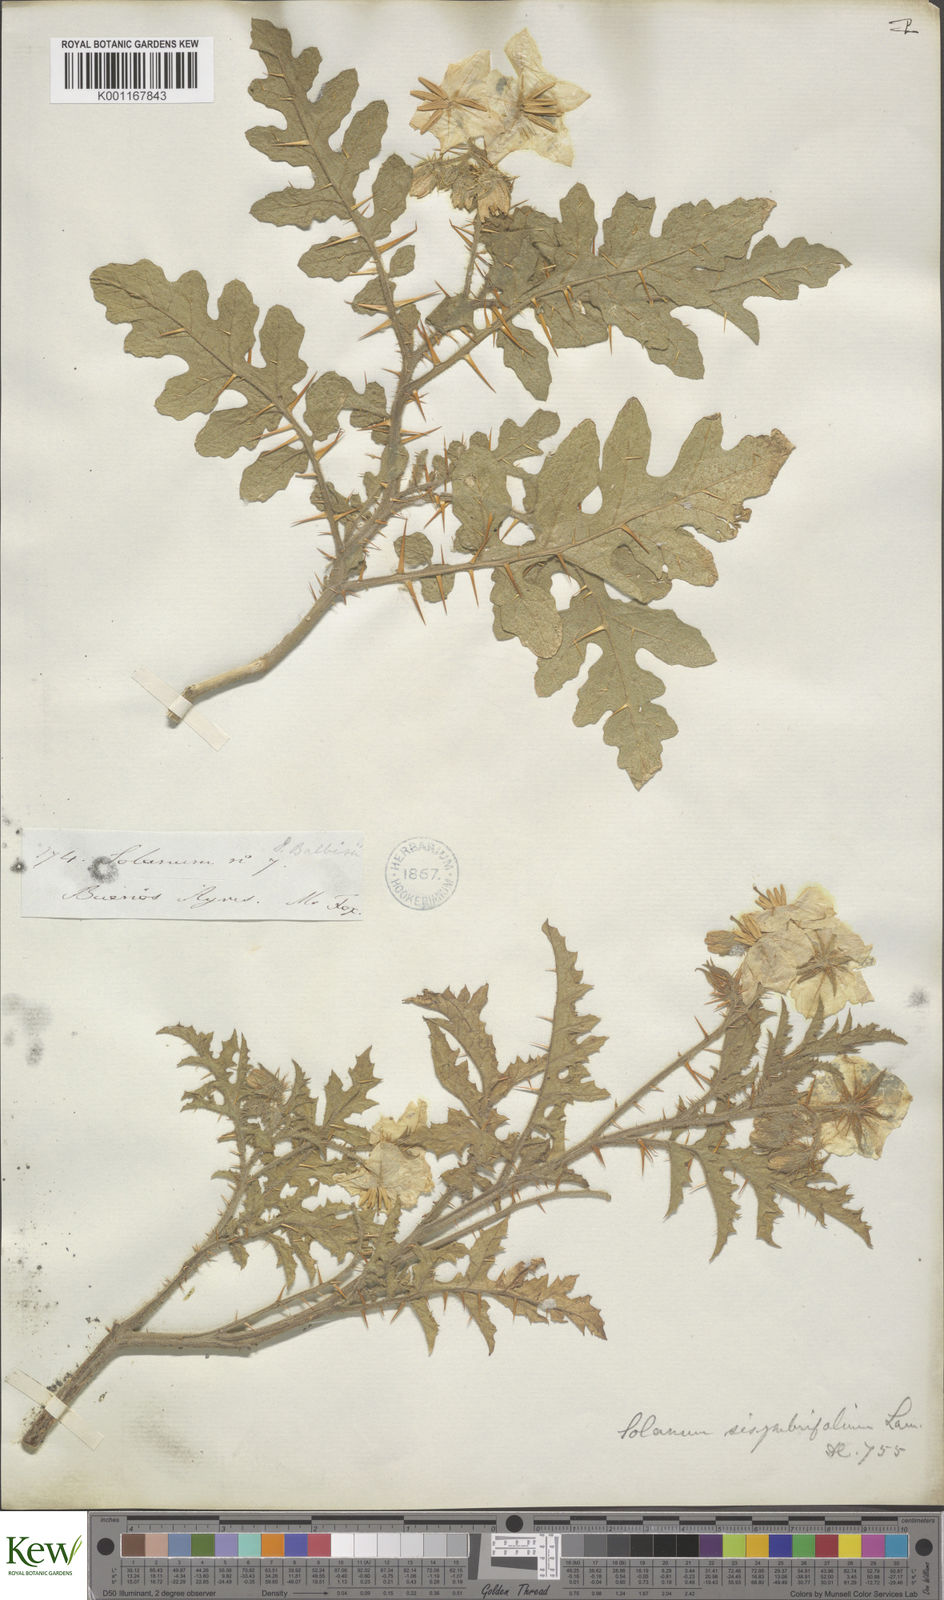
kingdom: Plantae
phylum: Tracheophyta
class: Magnoliopsida
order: Solanales
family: Solanaceae
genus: Solanum
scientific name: Solanum sisymbriifolium
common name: Red buffalo-bur
